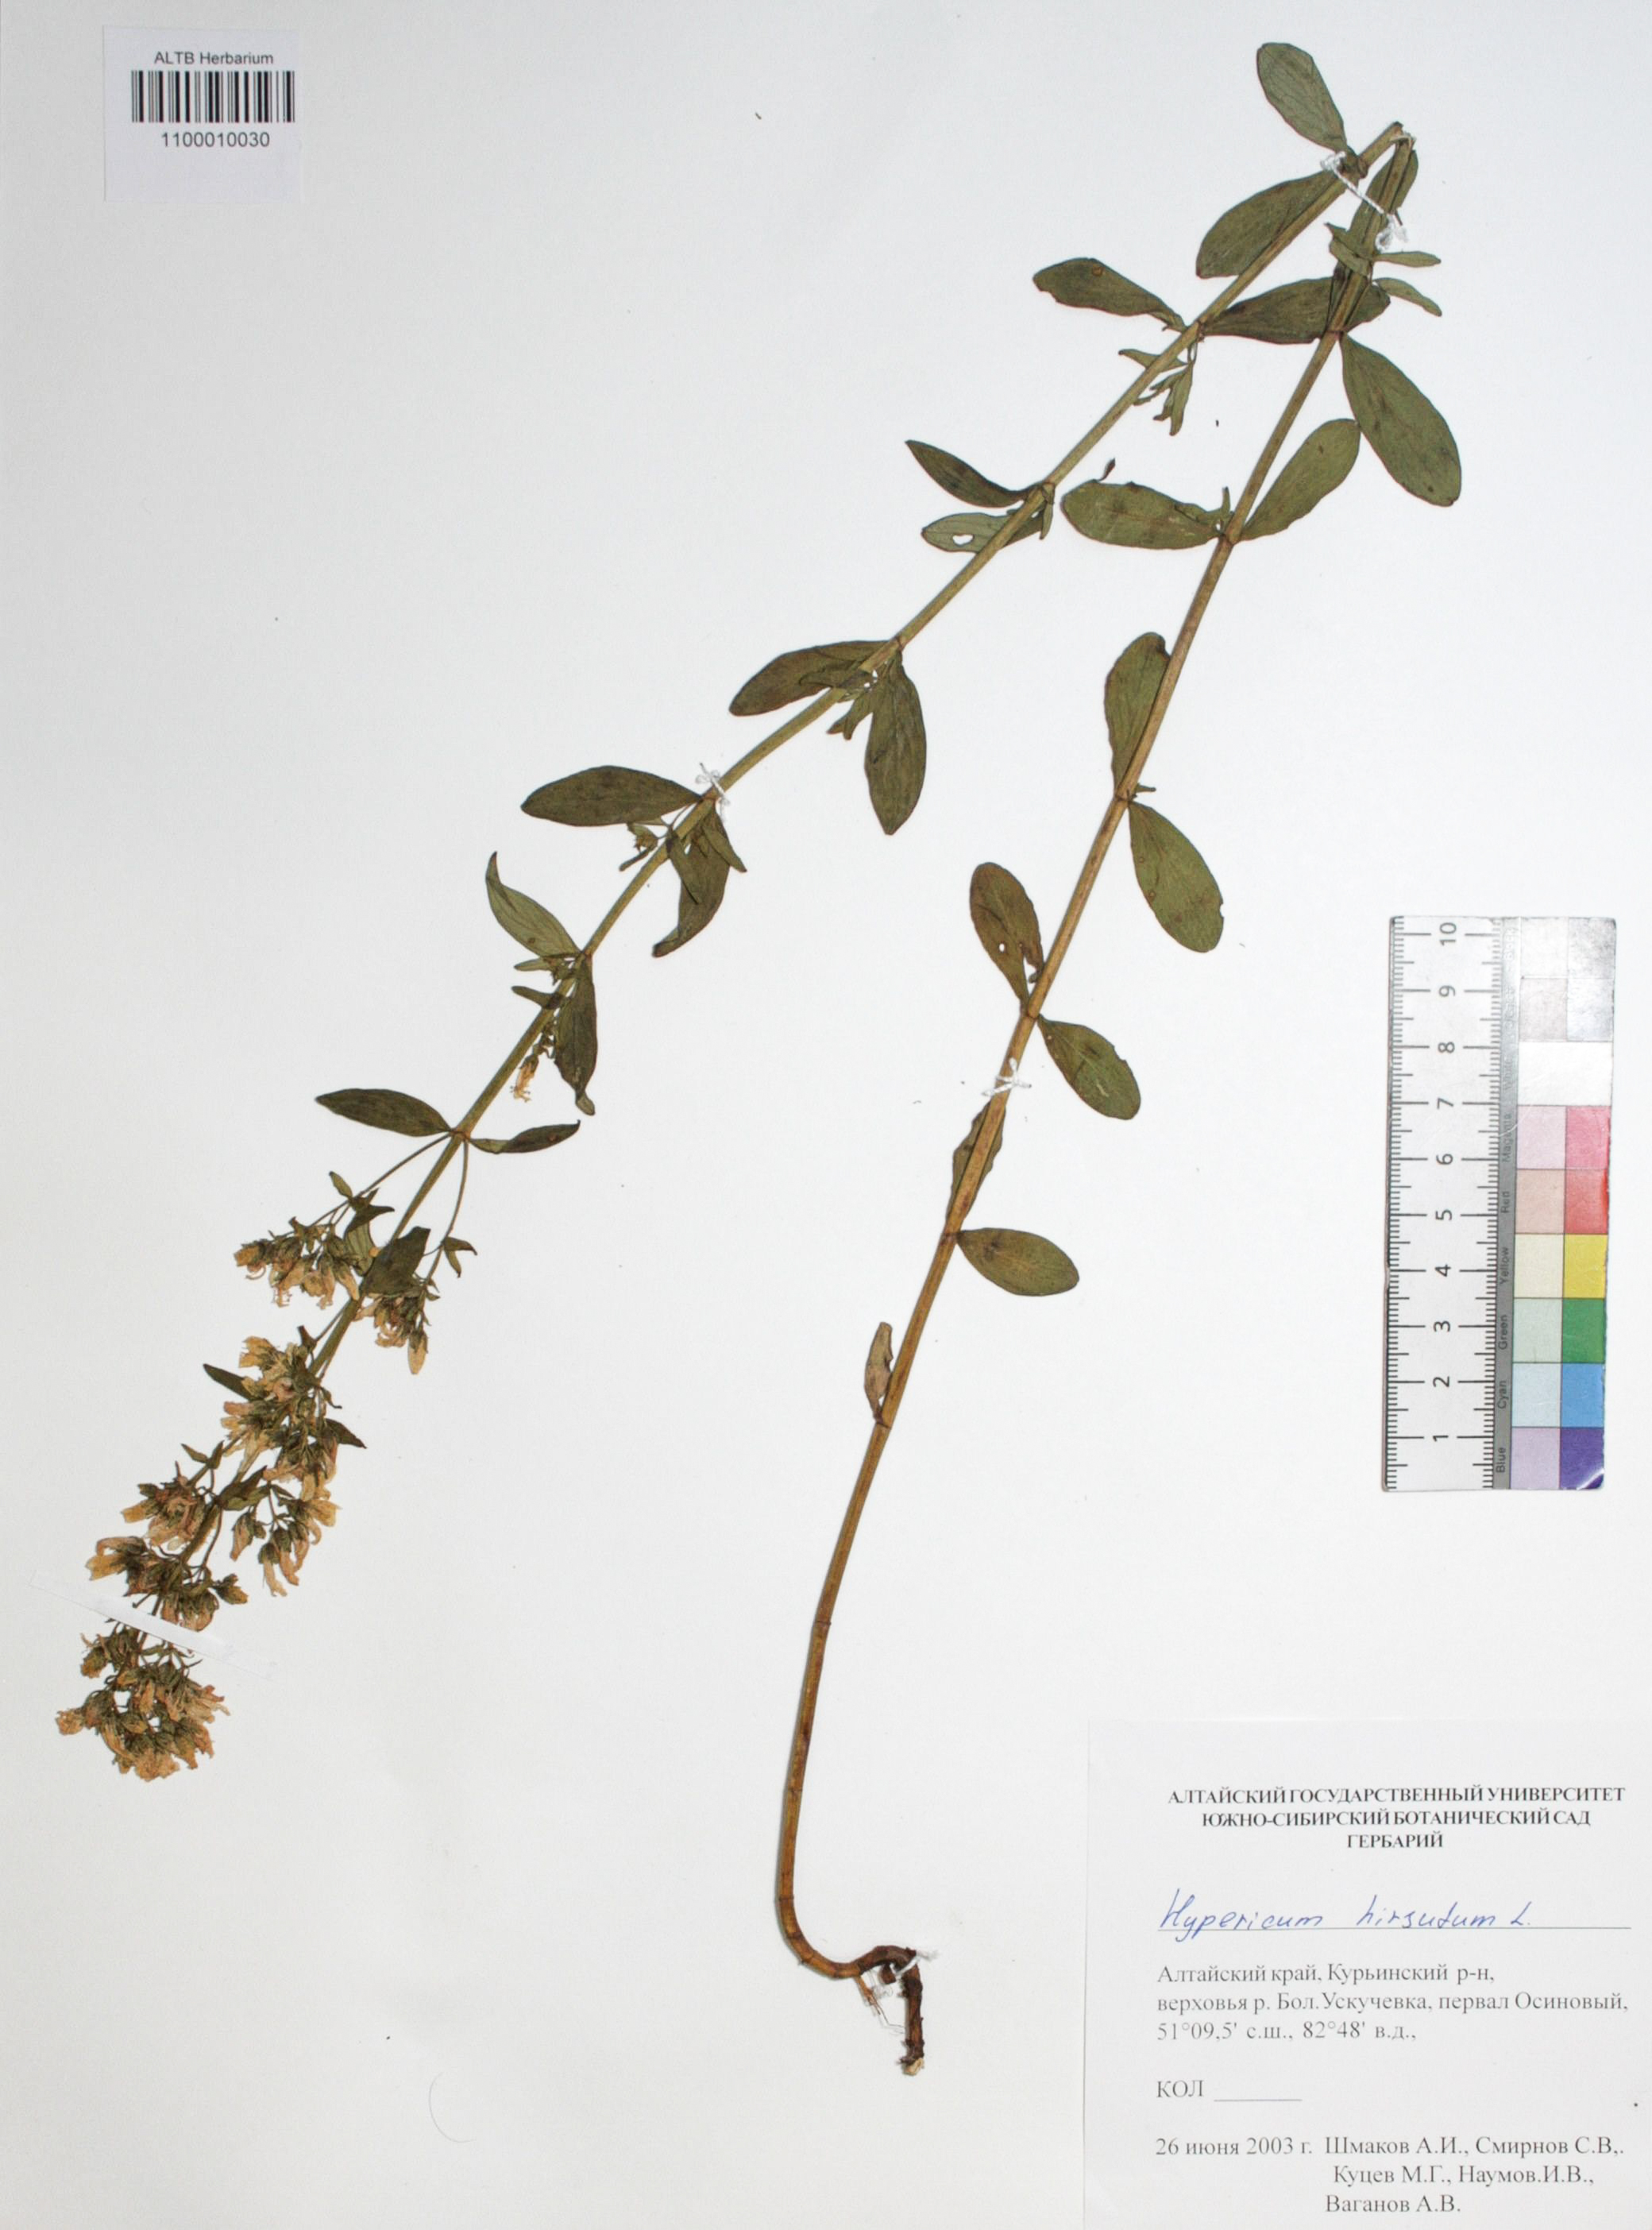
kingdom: Plantae
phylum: Tracheophyta
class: Magnoliopsida
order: Malpighiales
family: Hypericaceae
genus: Hypericum
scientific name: Hypericum hirsutum
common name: Hairy st. john's-wort
